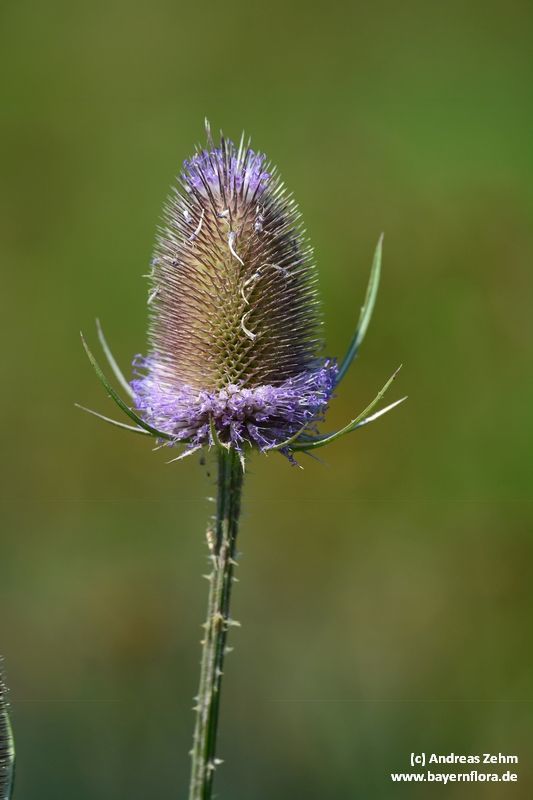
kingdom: Plantae
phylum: Tracheophyta
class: Magnoliopsida
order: Dipsacales
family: Caprifoliaceae
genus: Dipsacus
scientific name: Dipsacus fullonum
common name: Teasel
